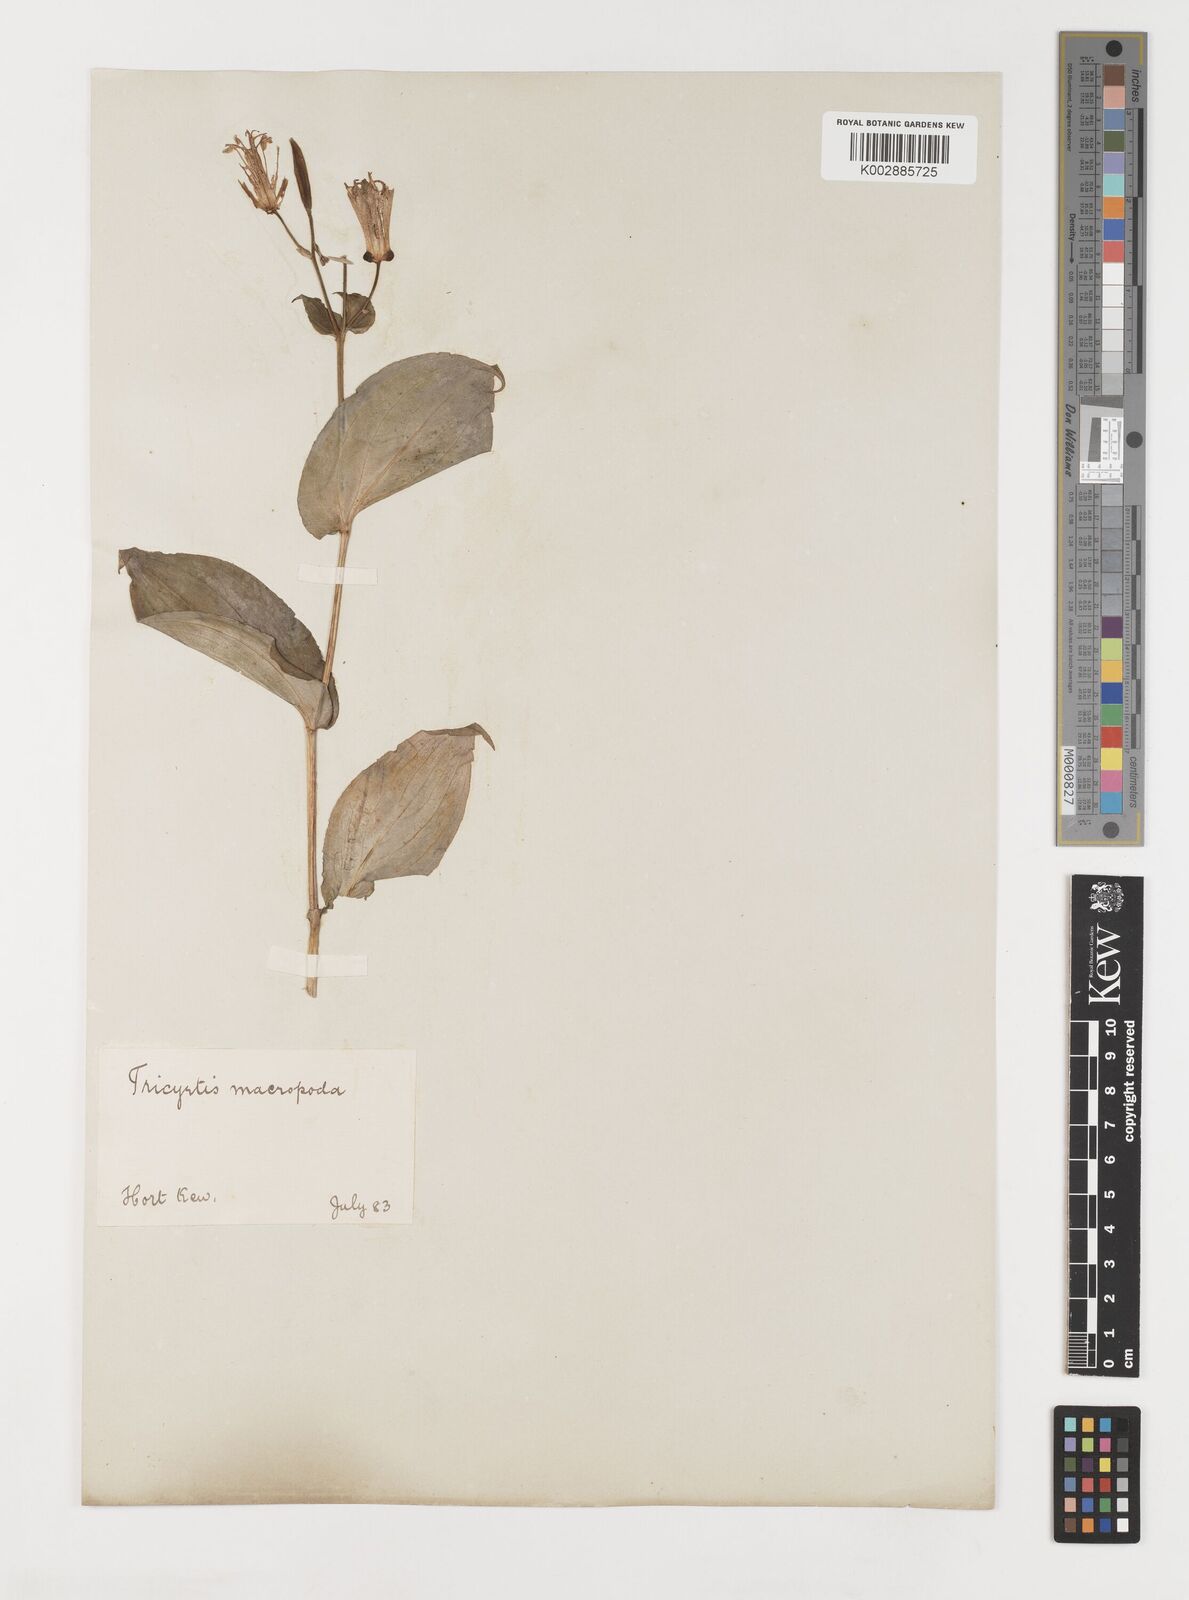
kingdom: Plantae
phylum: Tracheophyta
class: Liliopsida
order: Liliales
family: Liliaceae
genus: Tricyrtis
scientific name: Tricyrtis macropoda
